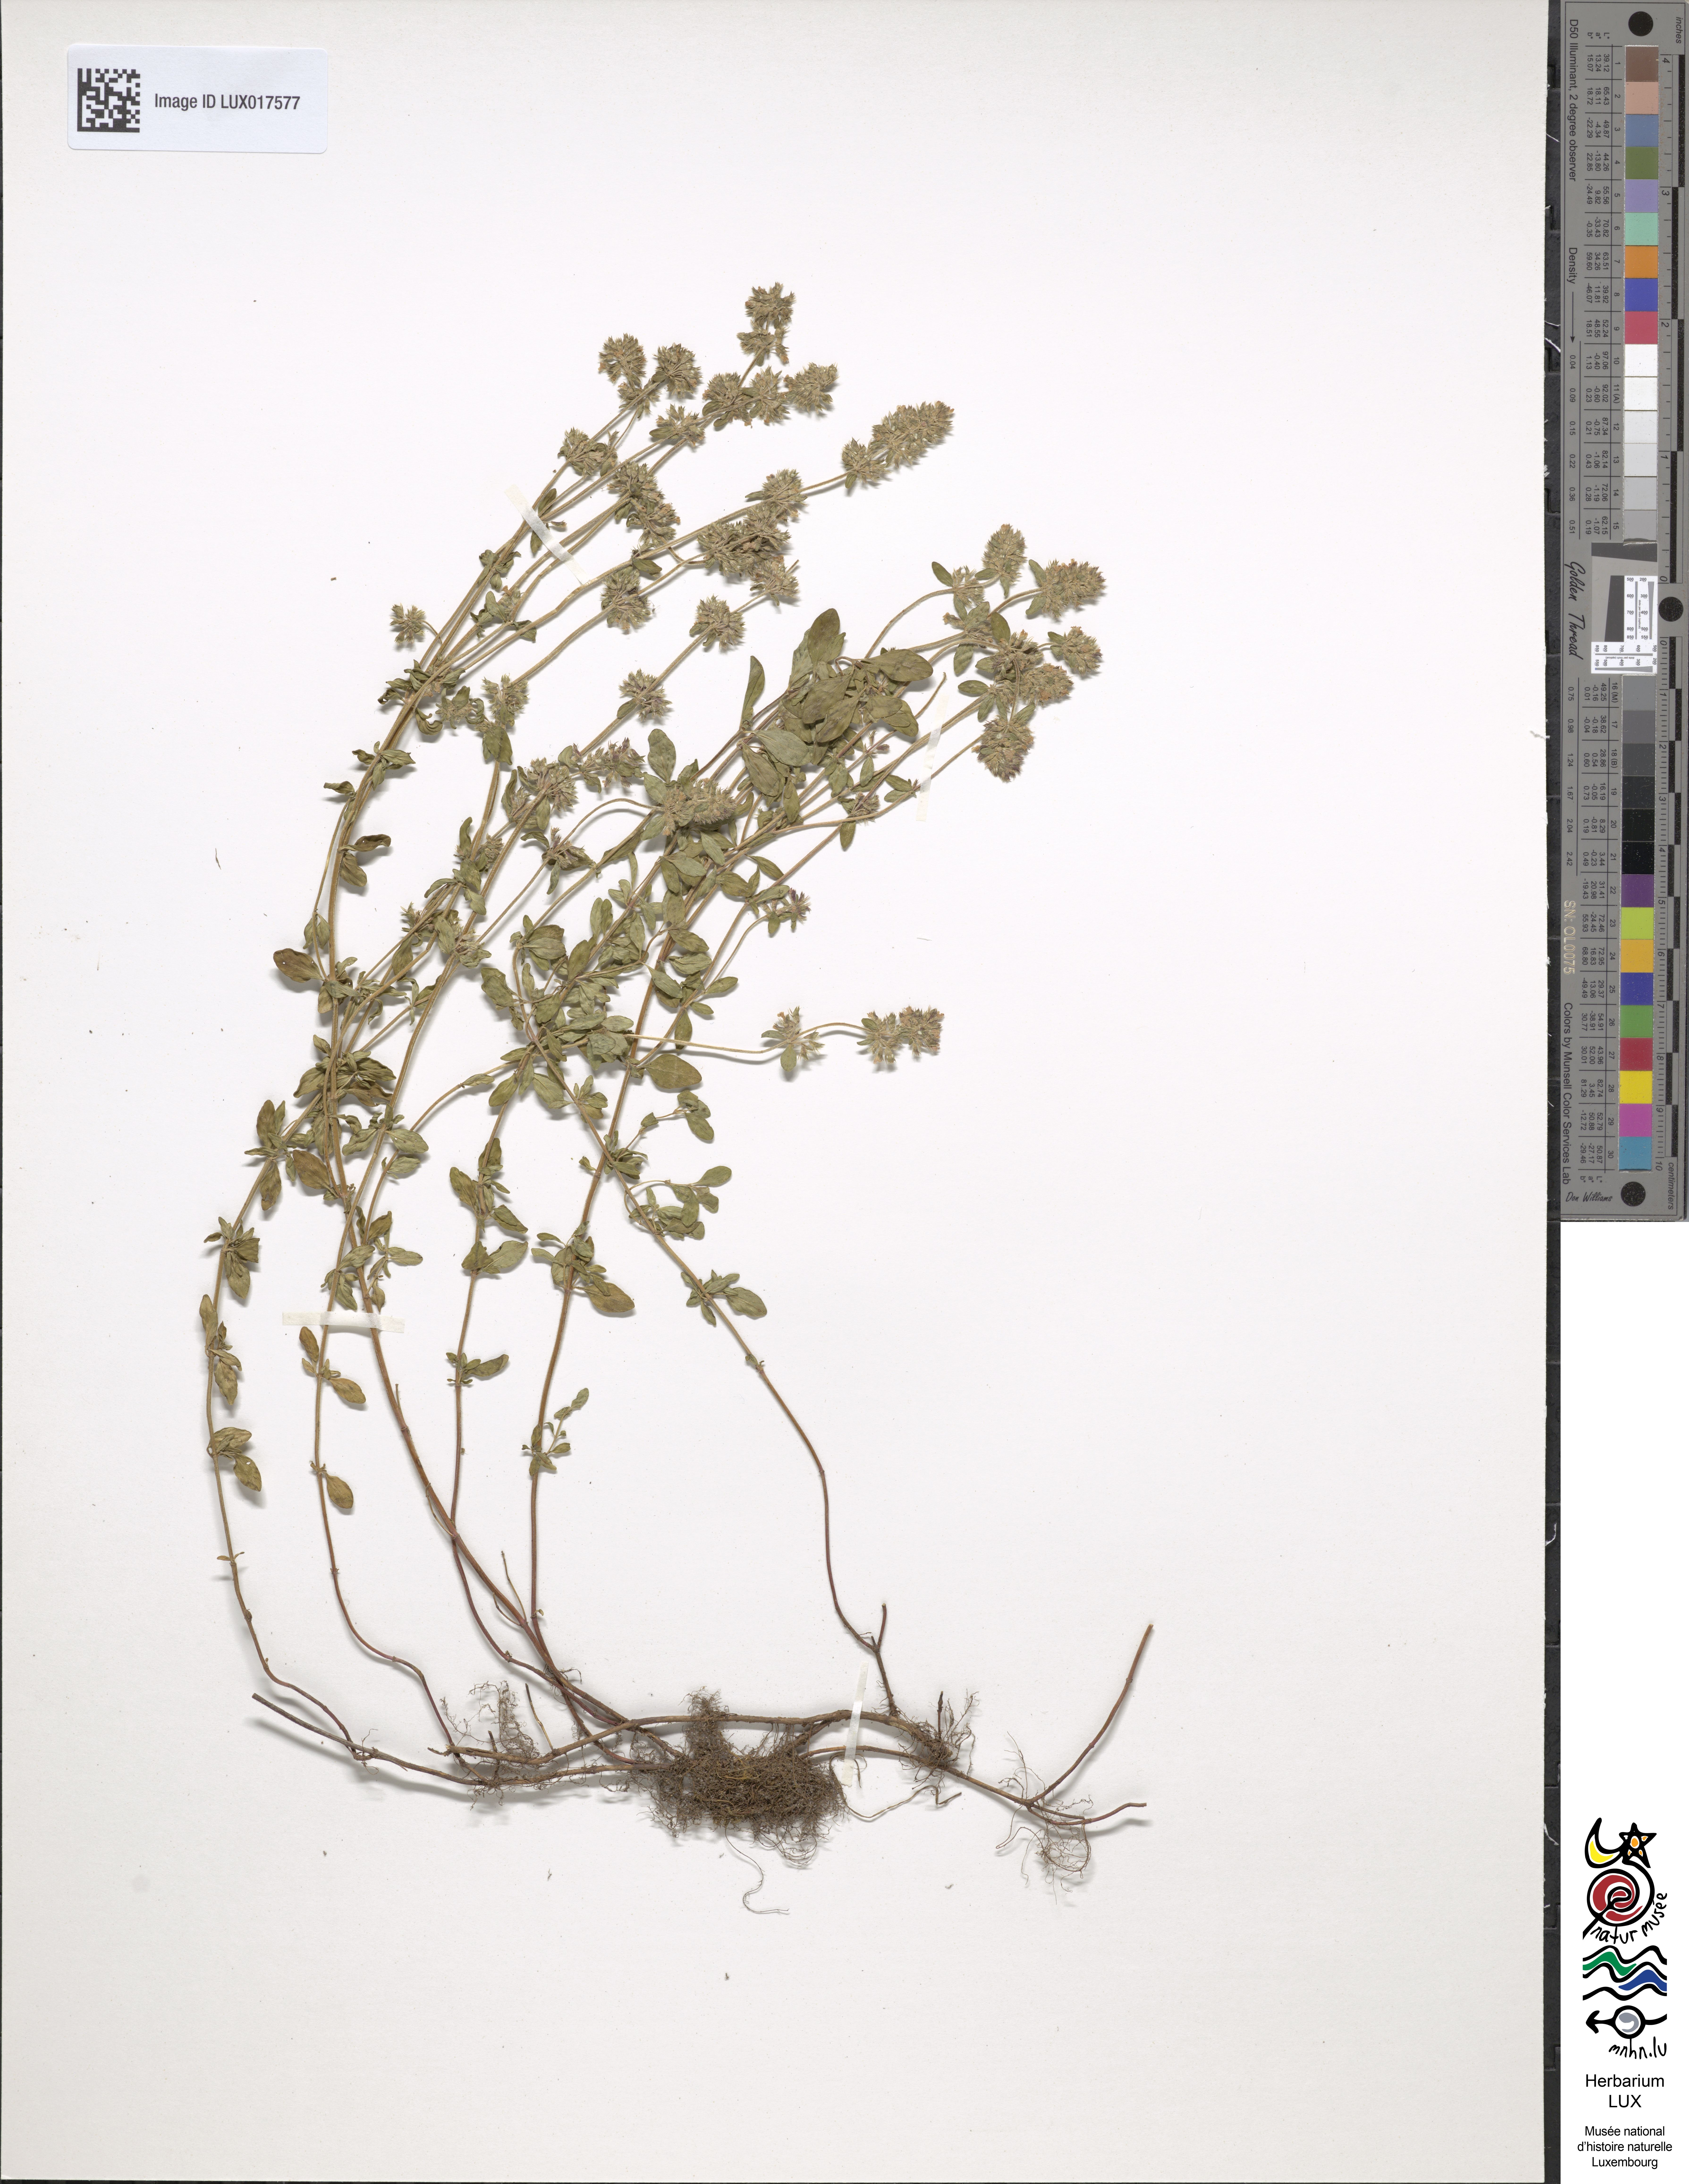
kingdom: Plantae
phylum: Tracheophyta
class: Magnoliopsida
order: Lamiales
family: Lamiaceae
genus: Thymus
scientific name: Thymus pulegioides
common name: Large thyme
